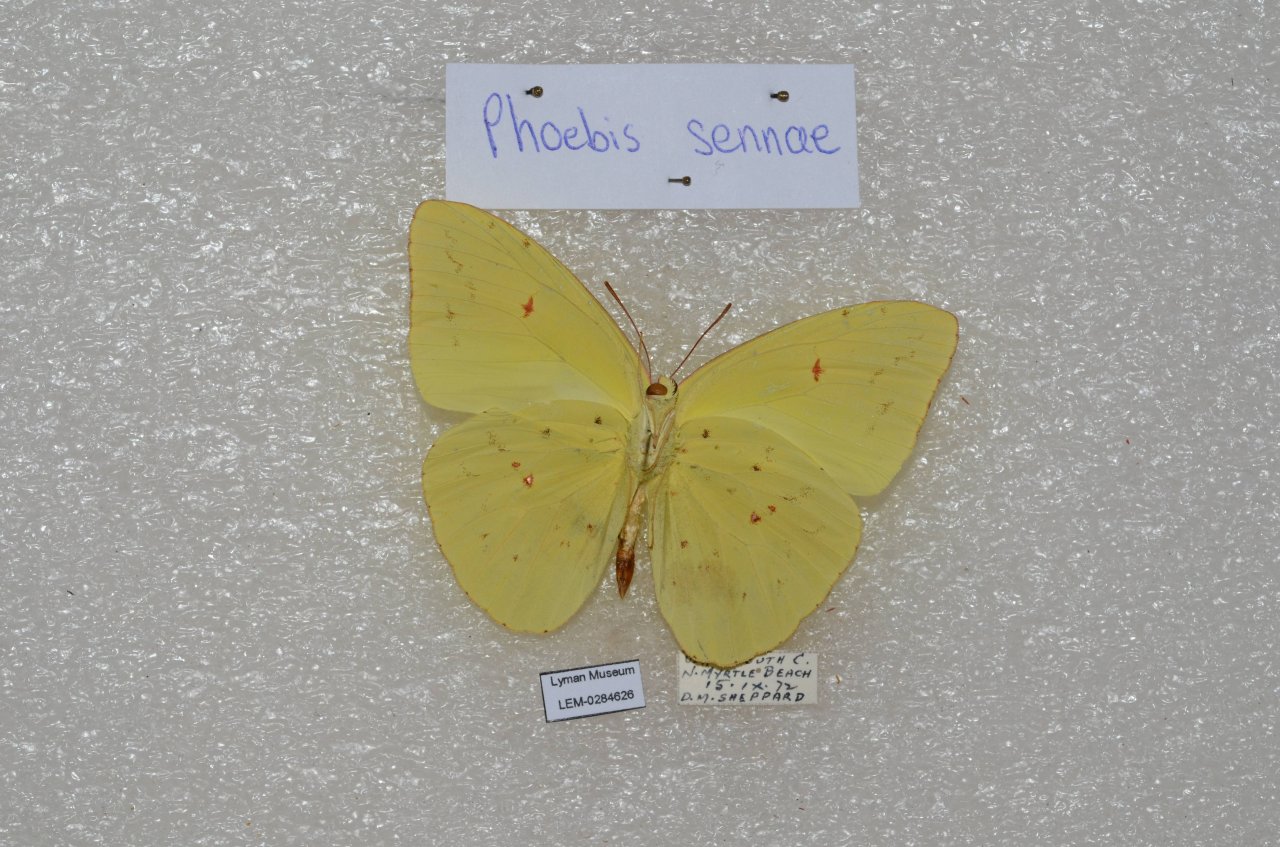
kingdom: Animalia
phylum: Arthropoda
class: Insecta
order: Lepidoptera
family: Pieridae
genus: Phoebis
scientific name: Phoebis sennae
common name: Cloudless Sulphur
